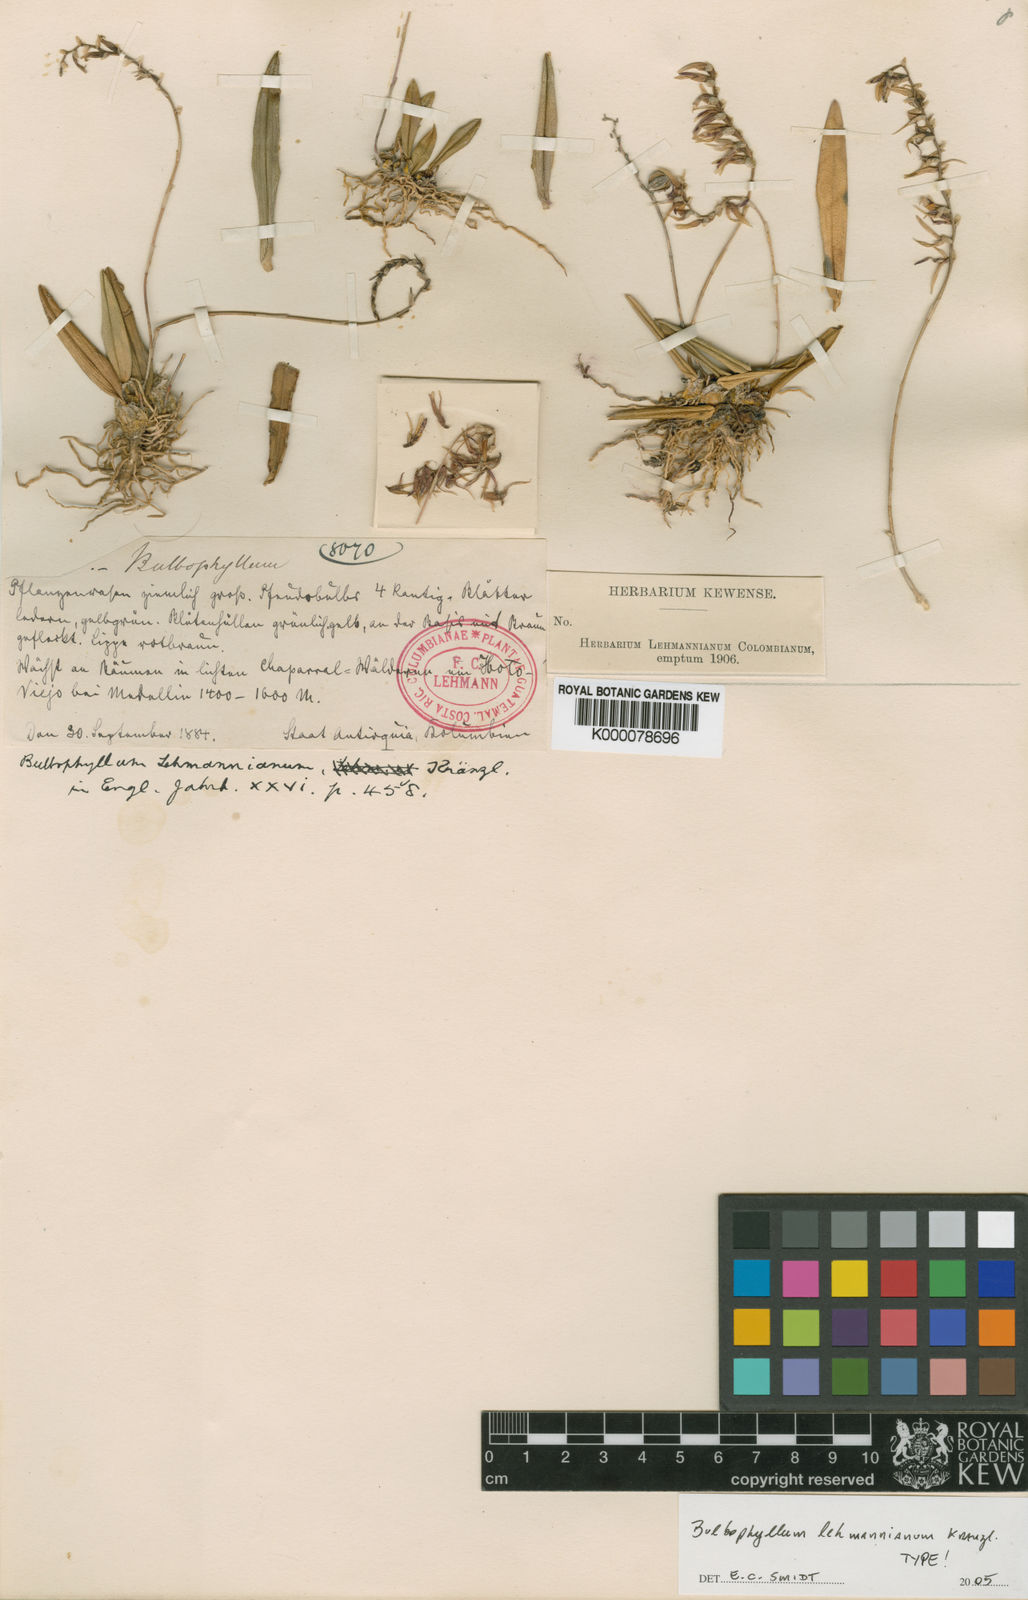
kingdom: Plantae
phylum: Tracheophyta
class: Liliopsida
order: Asparagales
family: Orchidaceae
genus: Bulbophyllum
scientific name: Bulbophyllum lehmannianum
